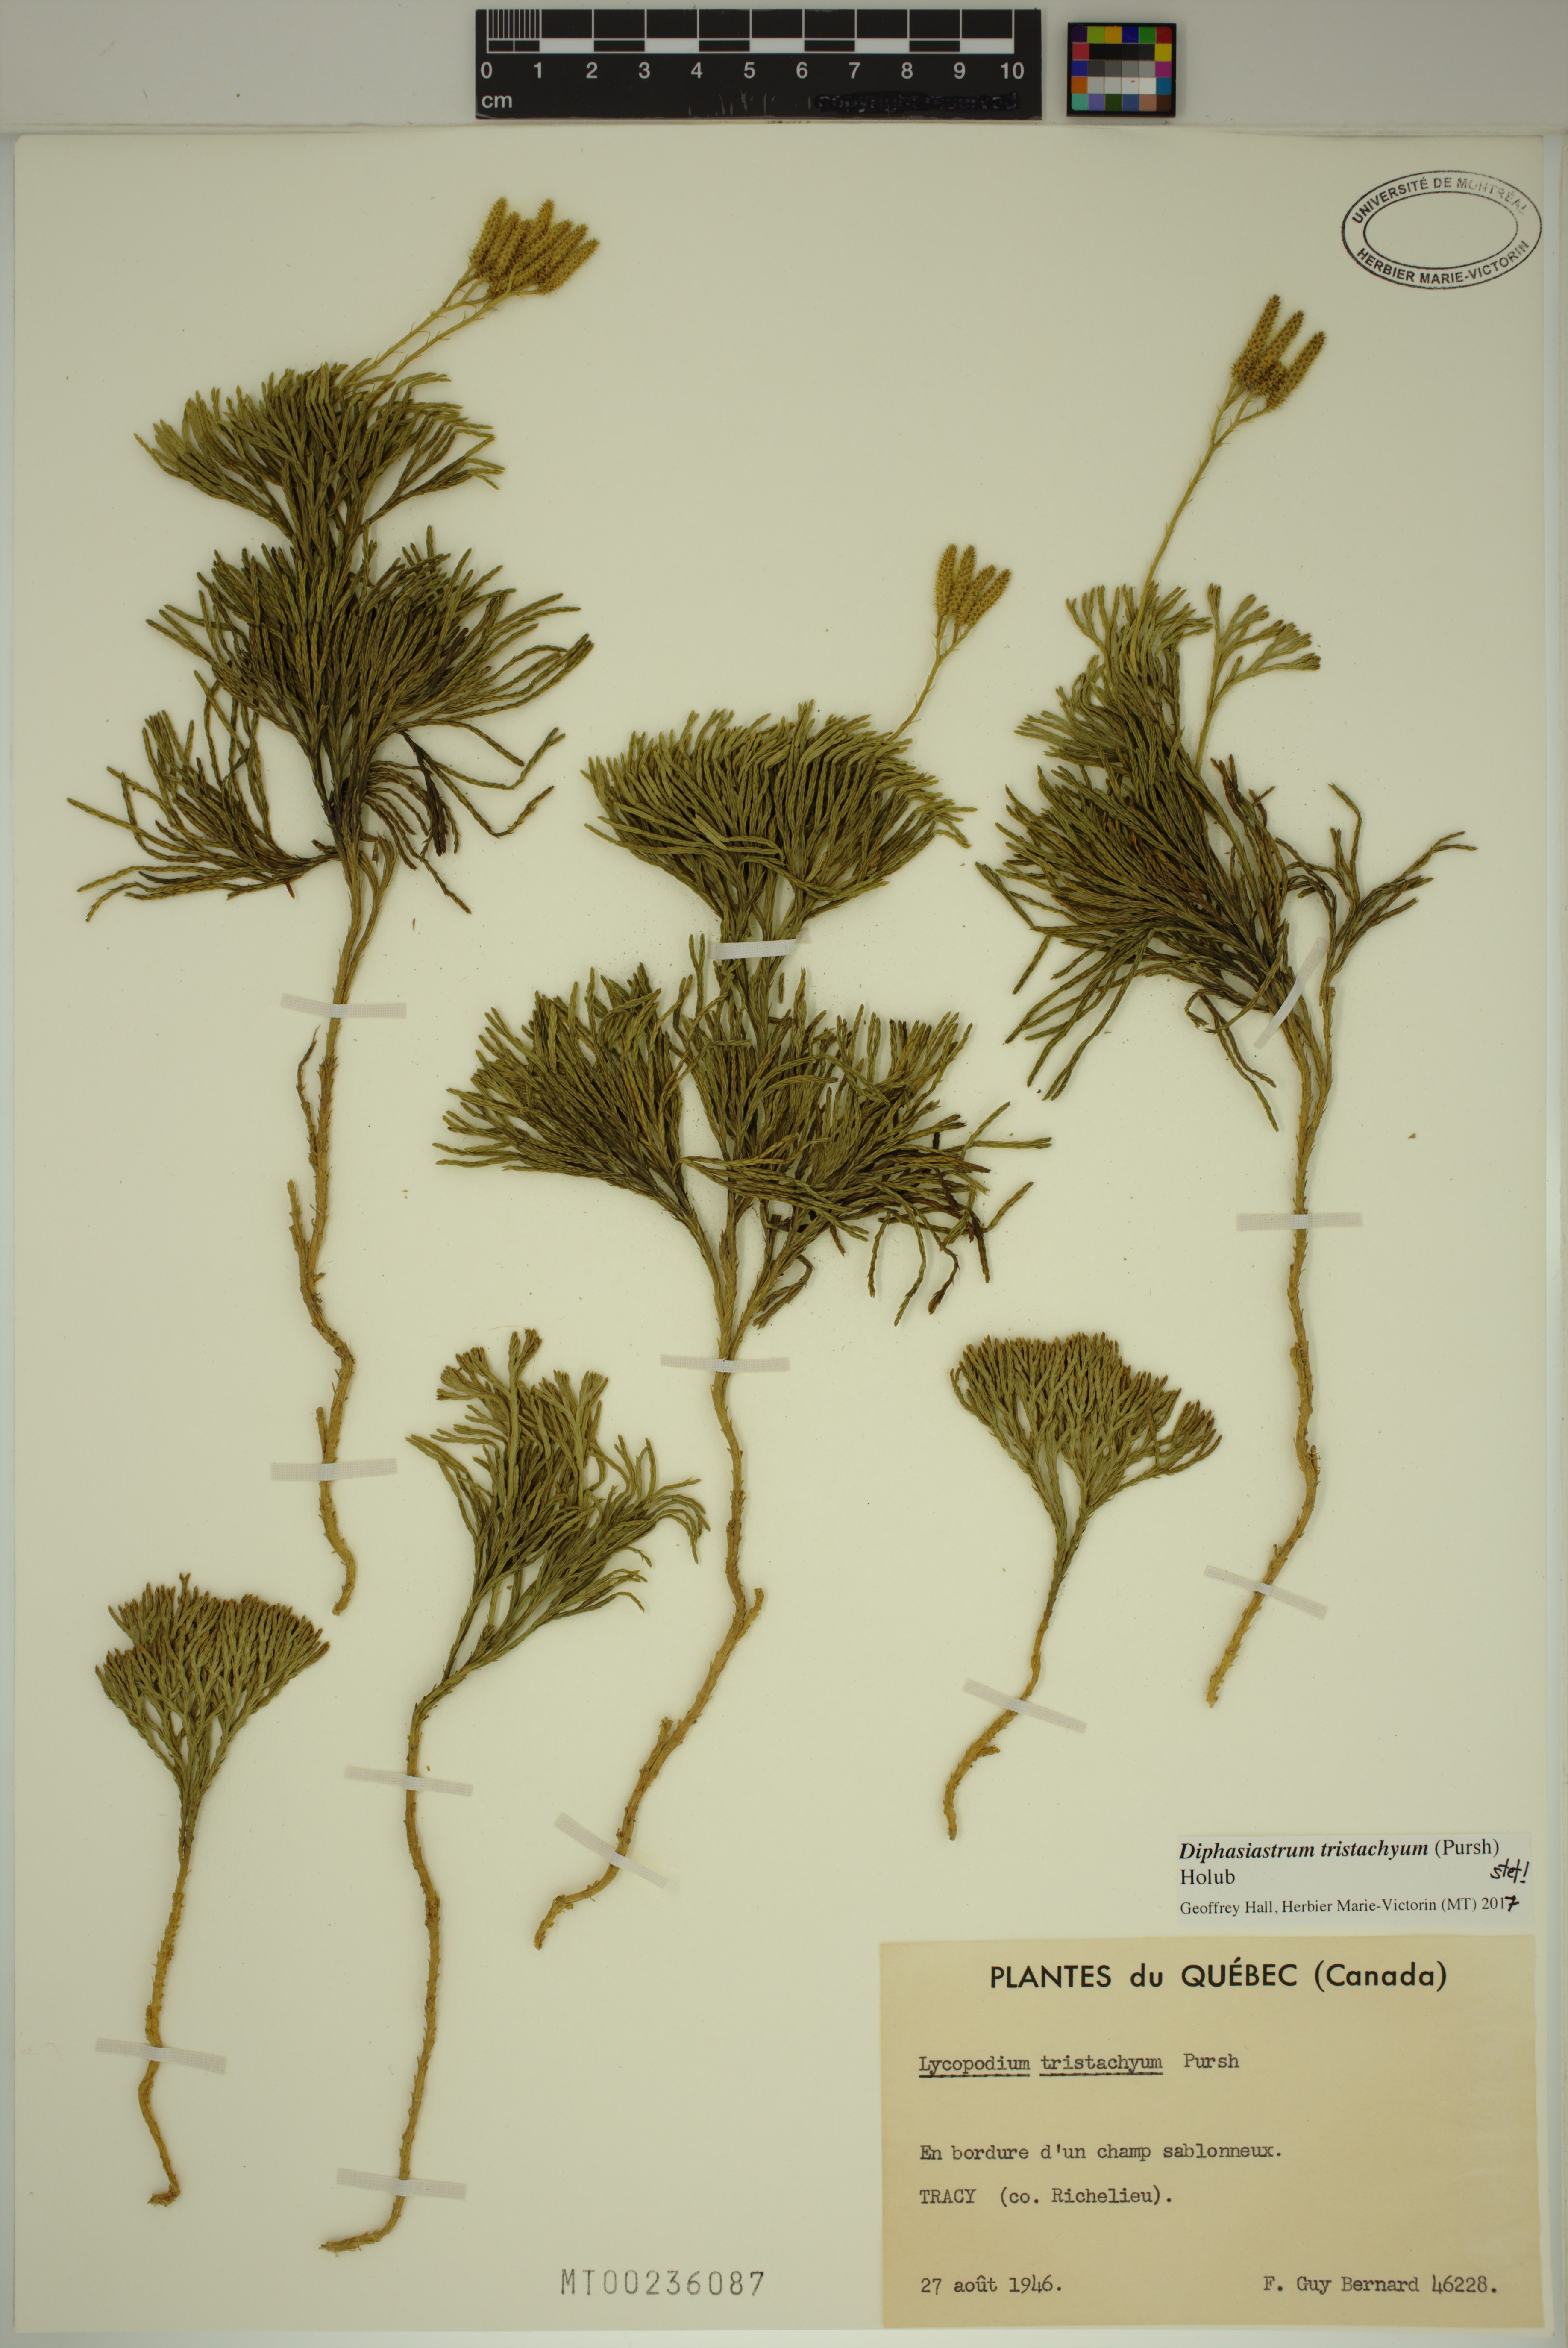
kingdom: Plantae
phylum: Tracheophyta
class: Lycopodiopsida
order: Lycopodiales
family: Lycopodiaceae
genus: Diphasiastrum
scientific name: Diphasiastrum tristachyum
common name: Blue ground-cedar
